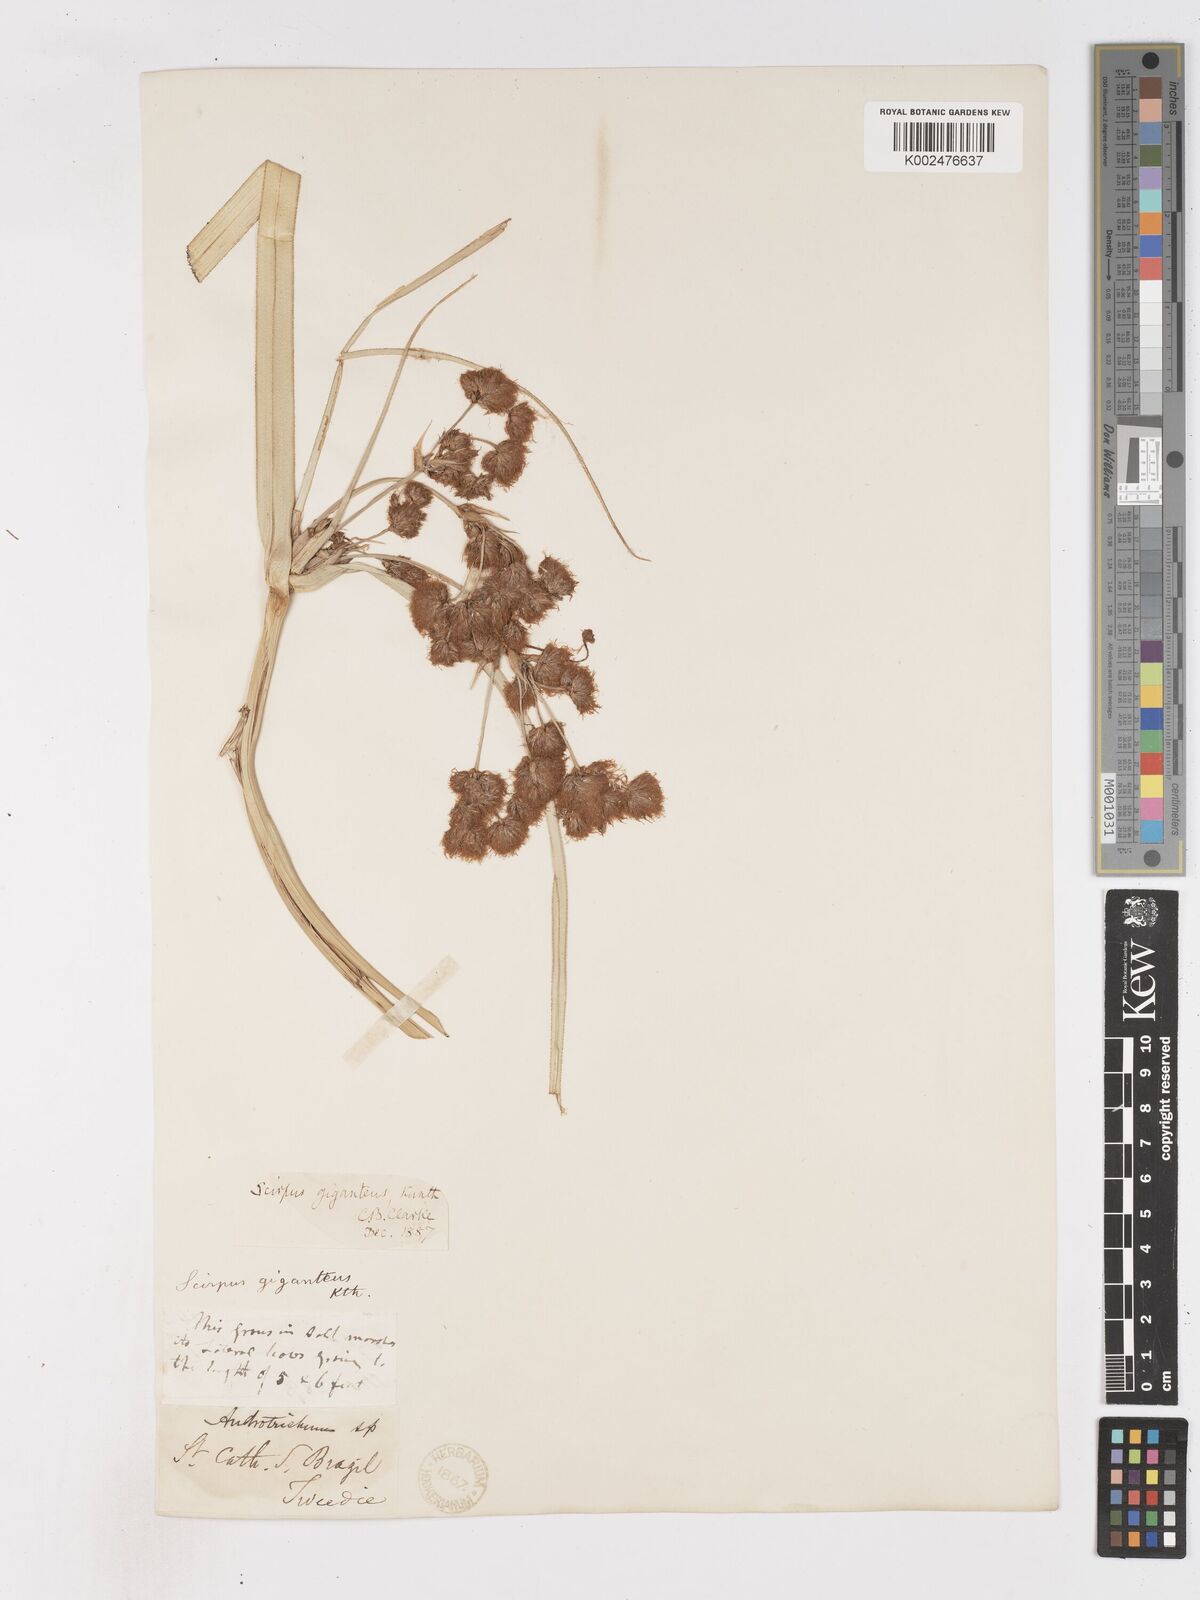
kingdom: Plantae
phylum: Tracheophyta
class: Liliopsida
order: Poales
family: Cyperaceae
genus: Cyperus
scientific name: Cyperus byssaceus
